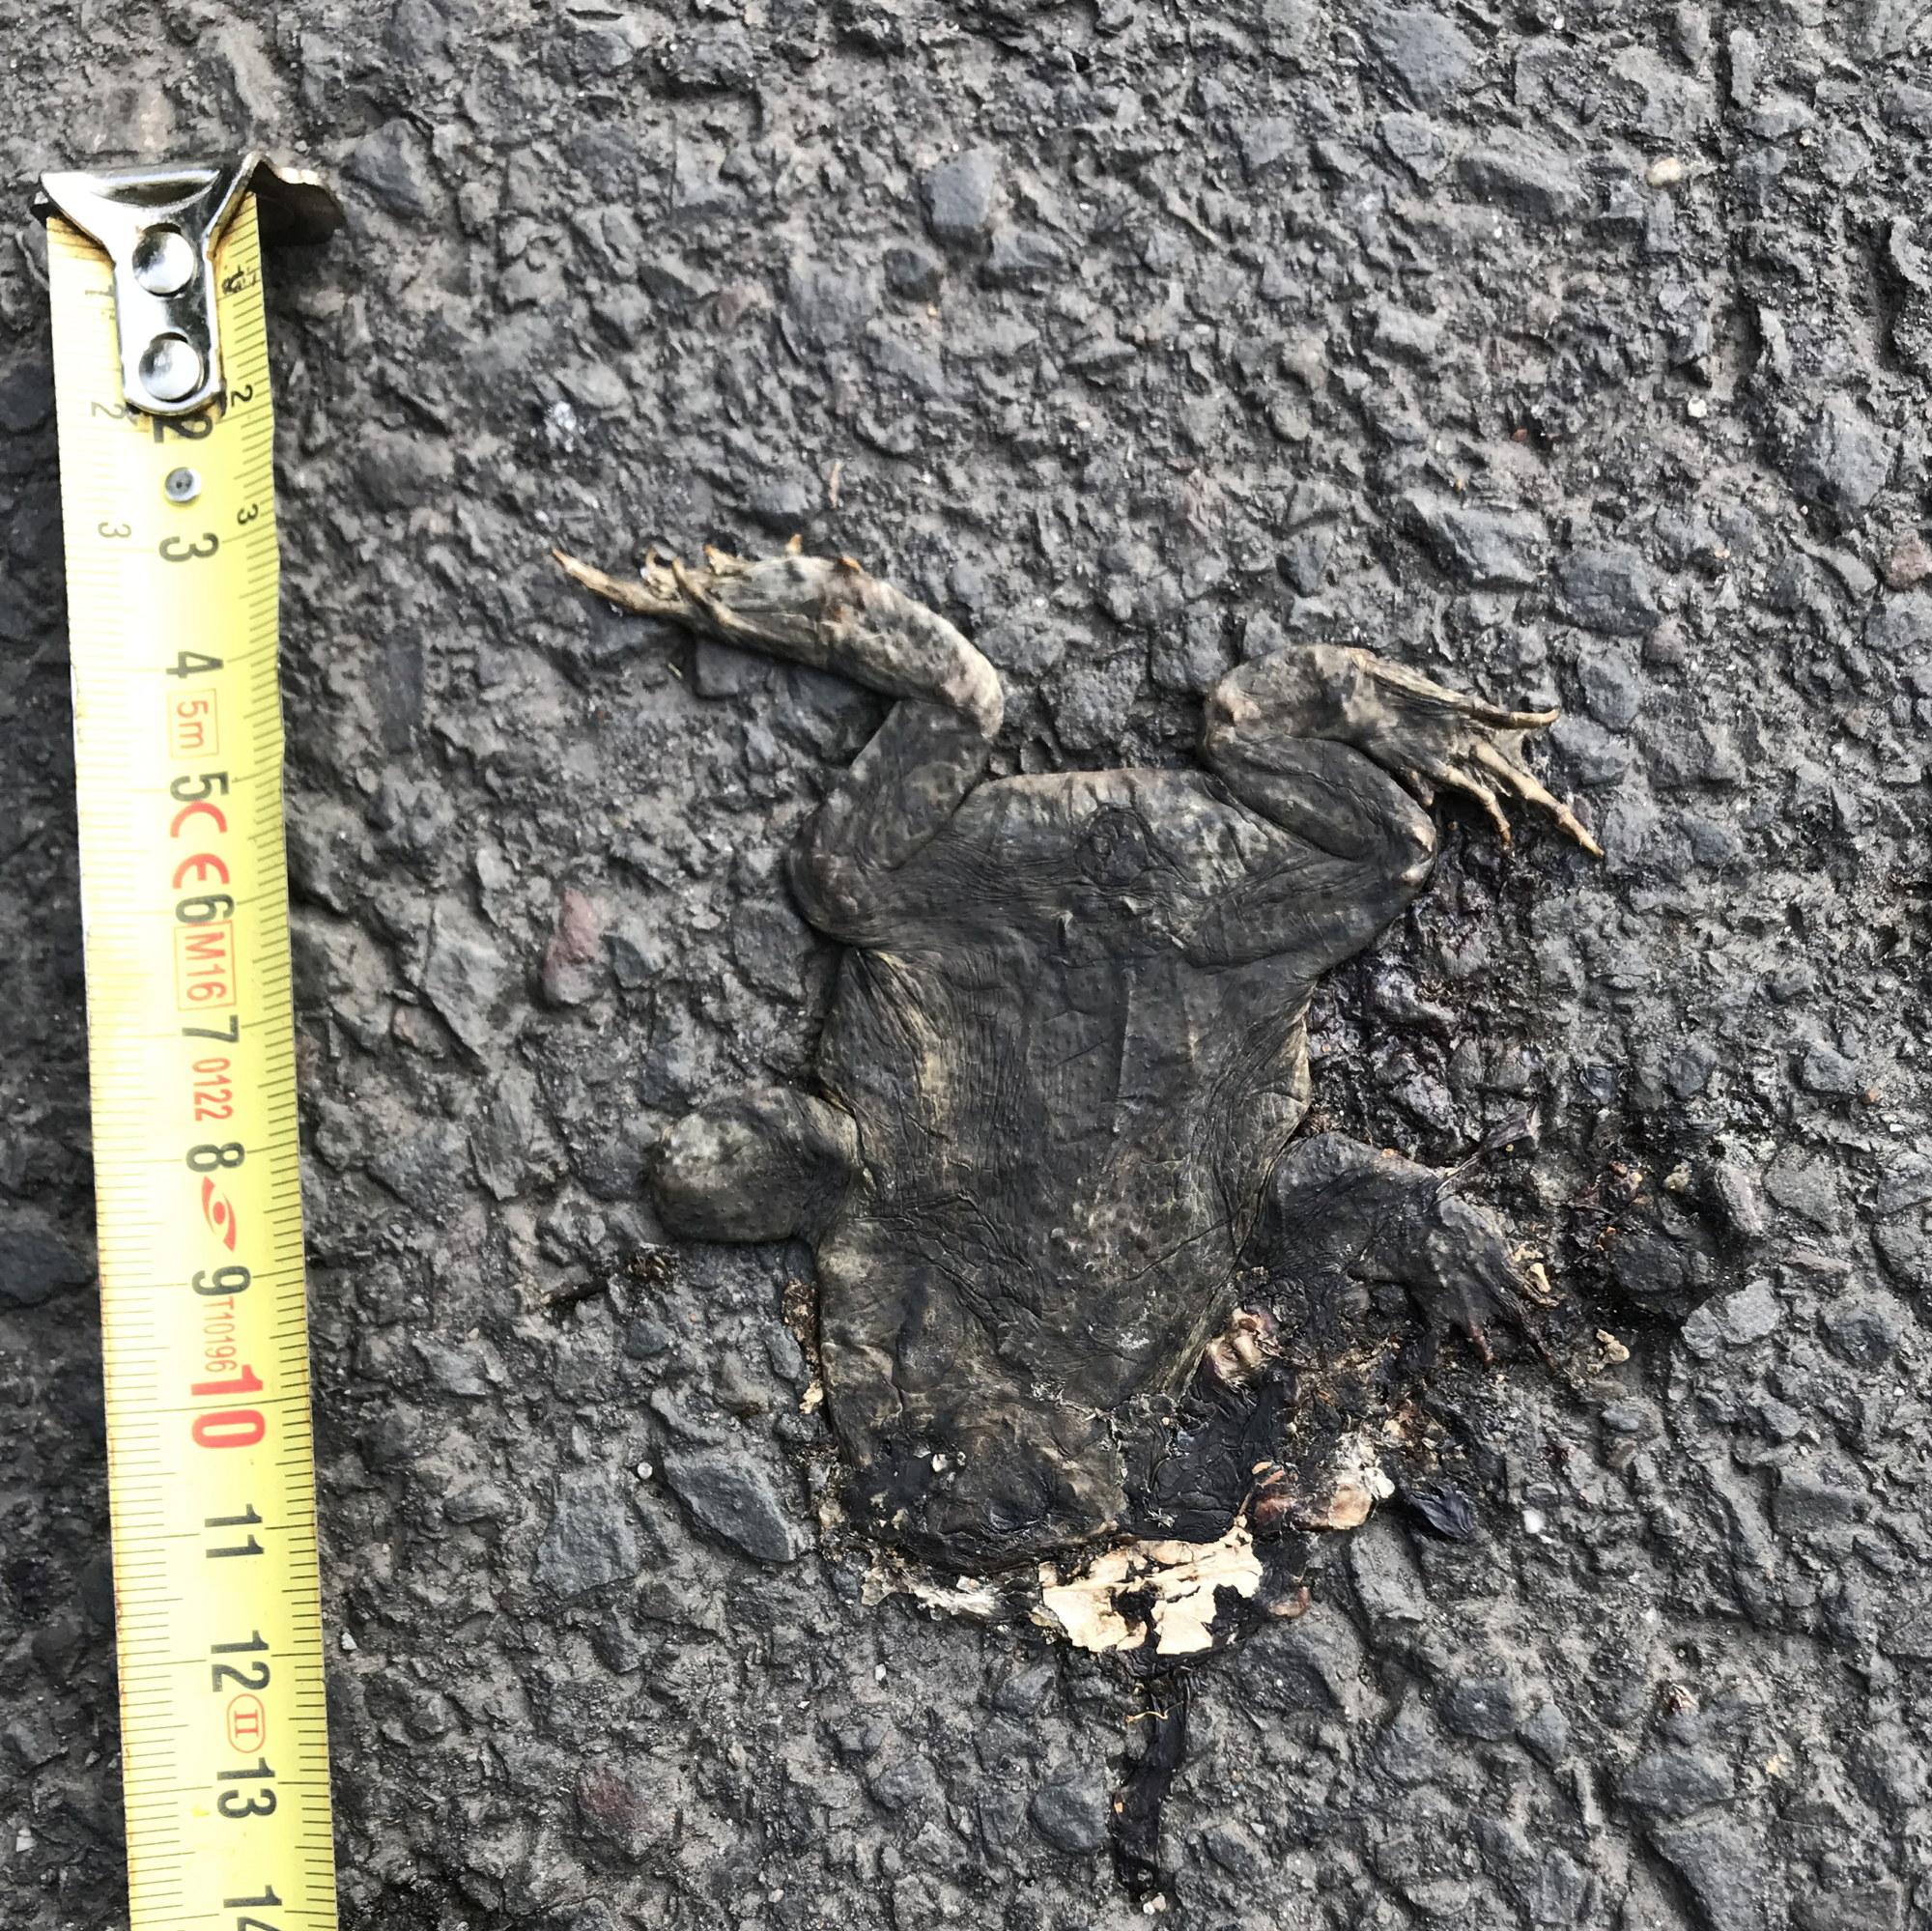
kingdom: Animalia
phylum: Chordata
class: Amphibia
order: Anura
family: Bufonidae
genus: Bufo
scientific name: Bufo bufo
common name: Common toad
